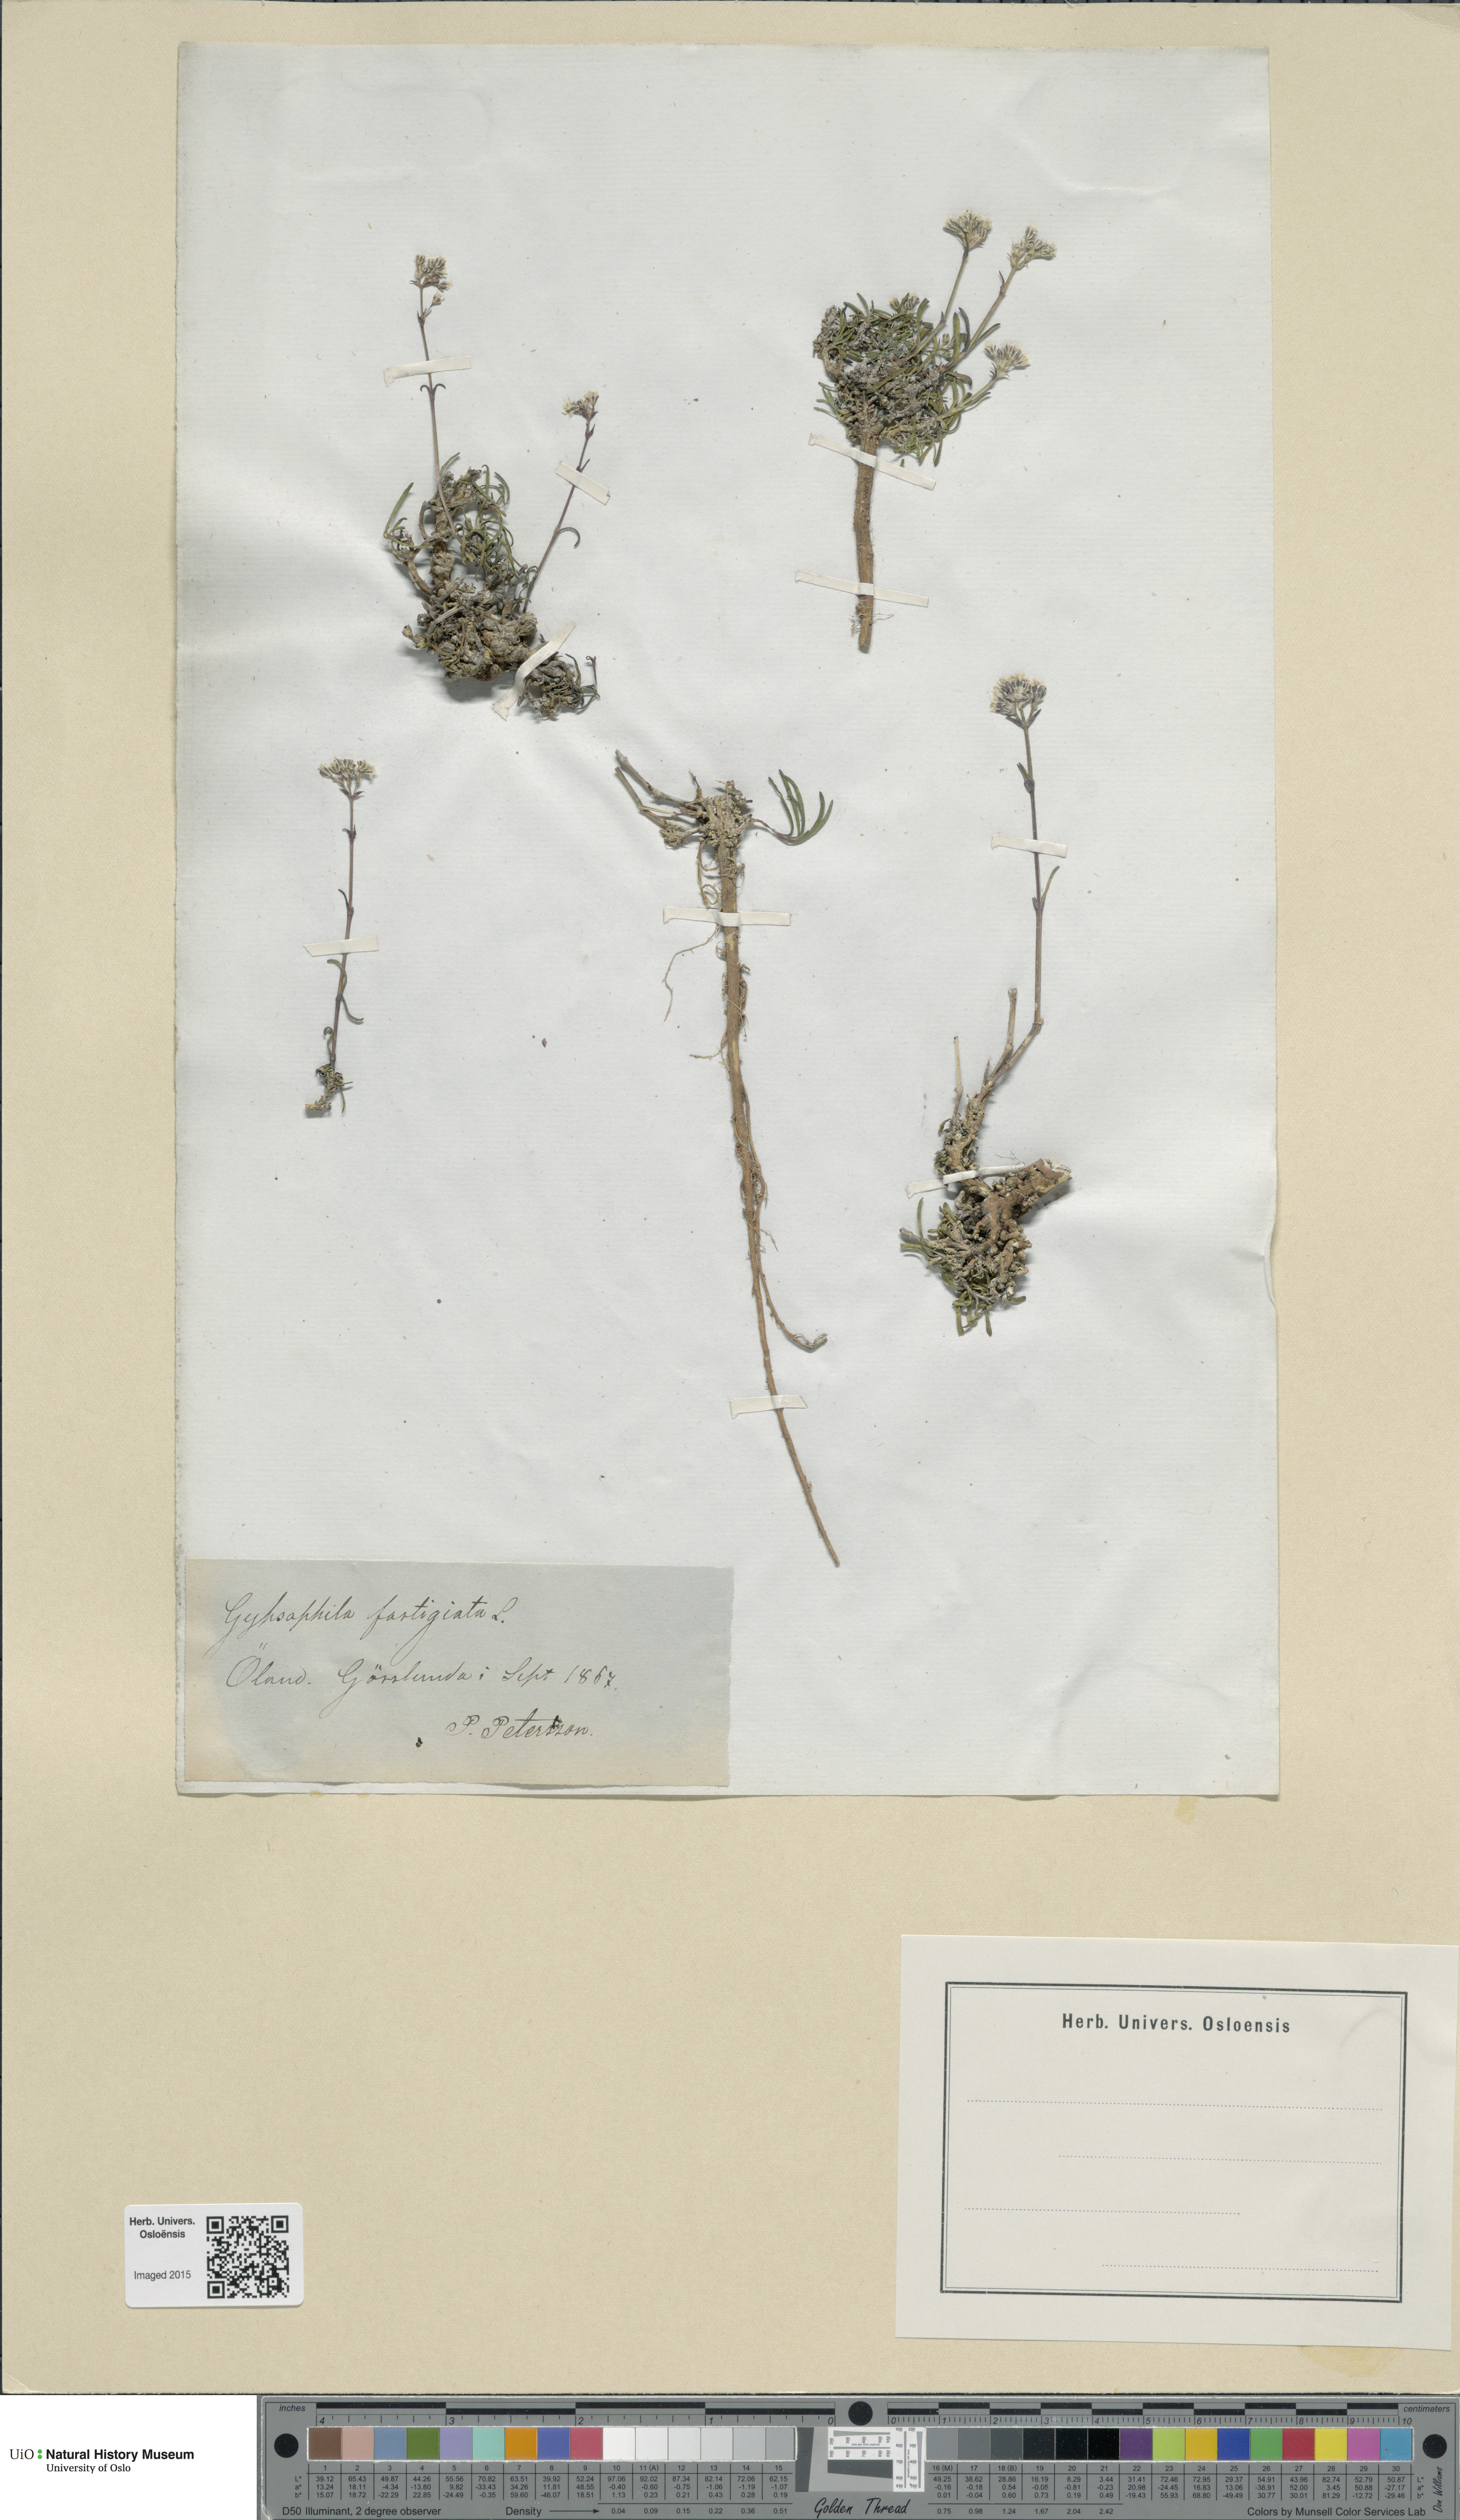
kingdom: Plantae
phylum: Tracheophyta
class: Magnoliopsida
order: Caryophyllales
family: Caryophyllaceae
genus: Gypsophila
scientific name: Gypsophila fastigiata
